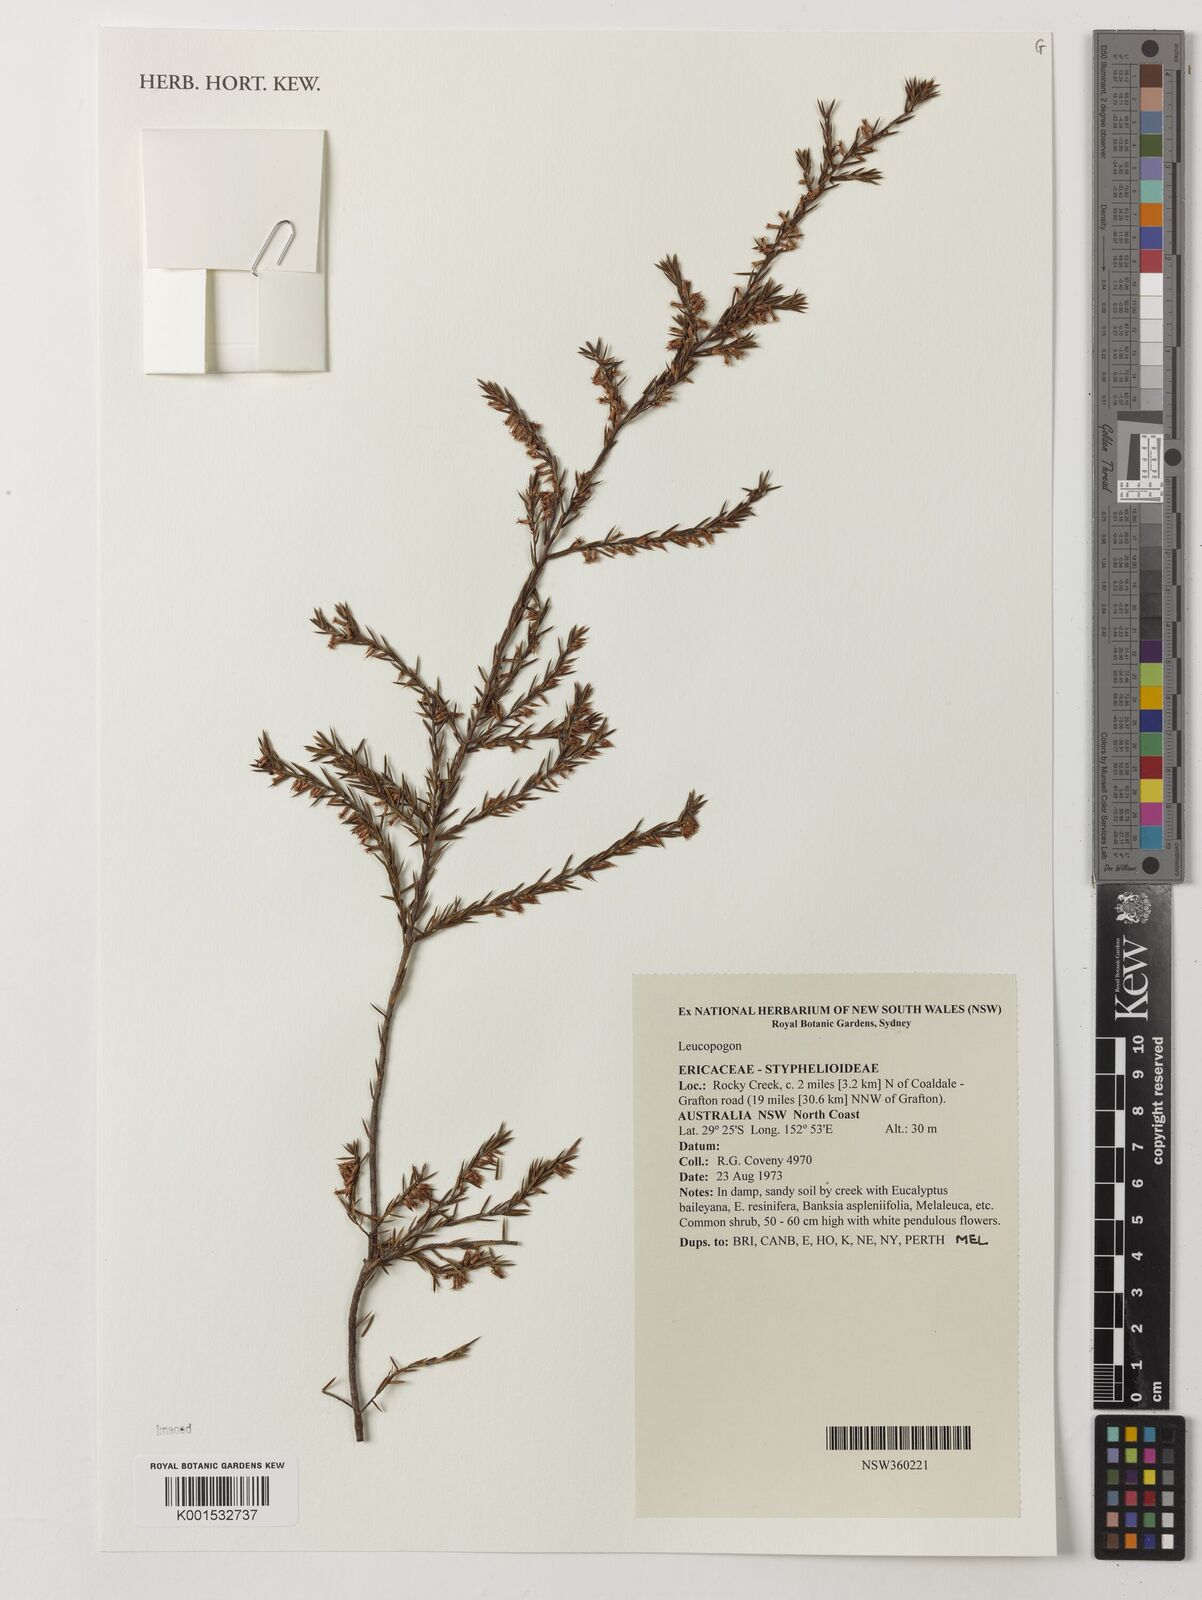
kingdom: Plantae
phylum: Tracheophyta
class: Magnoliopsida
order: Ericales
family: Ericaceae
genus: Leucopogon
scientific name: Leucopogon
